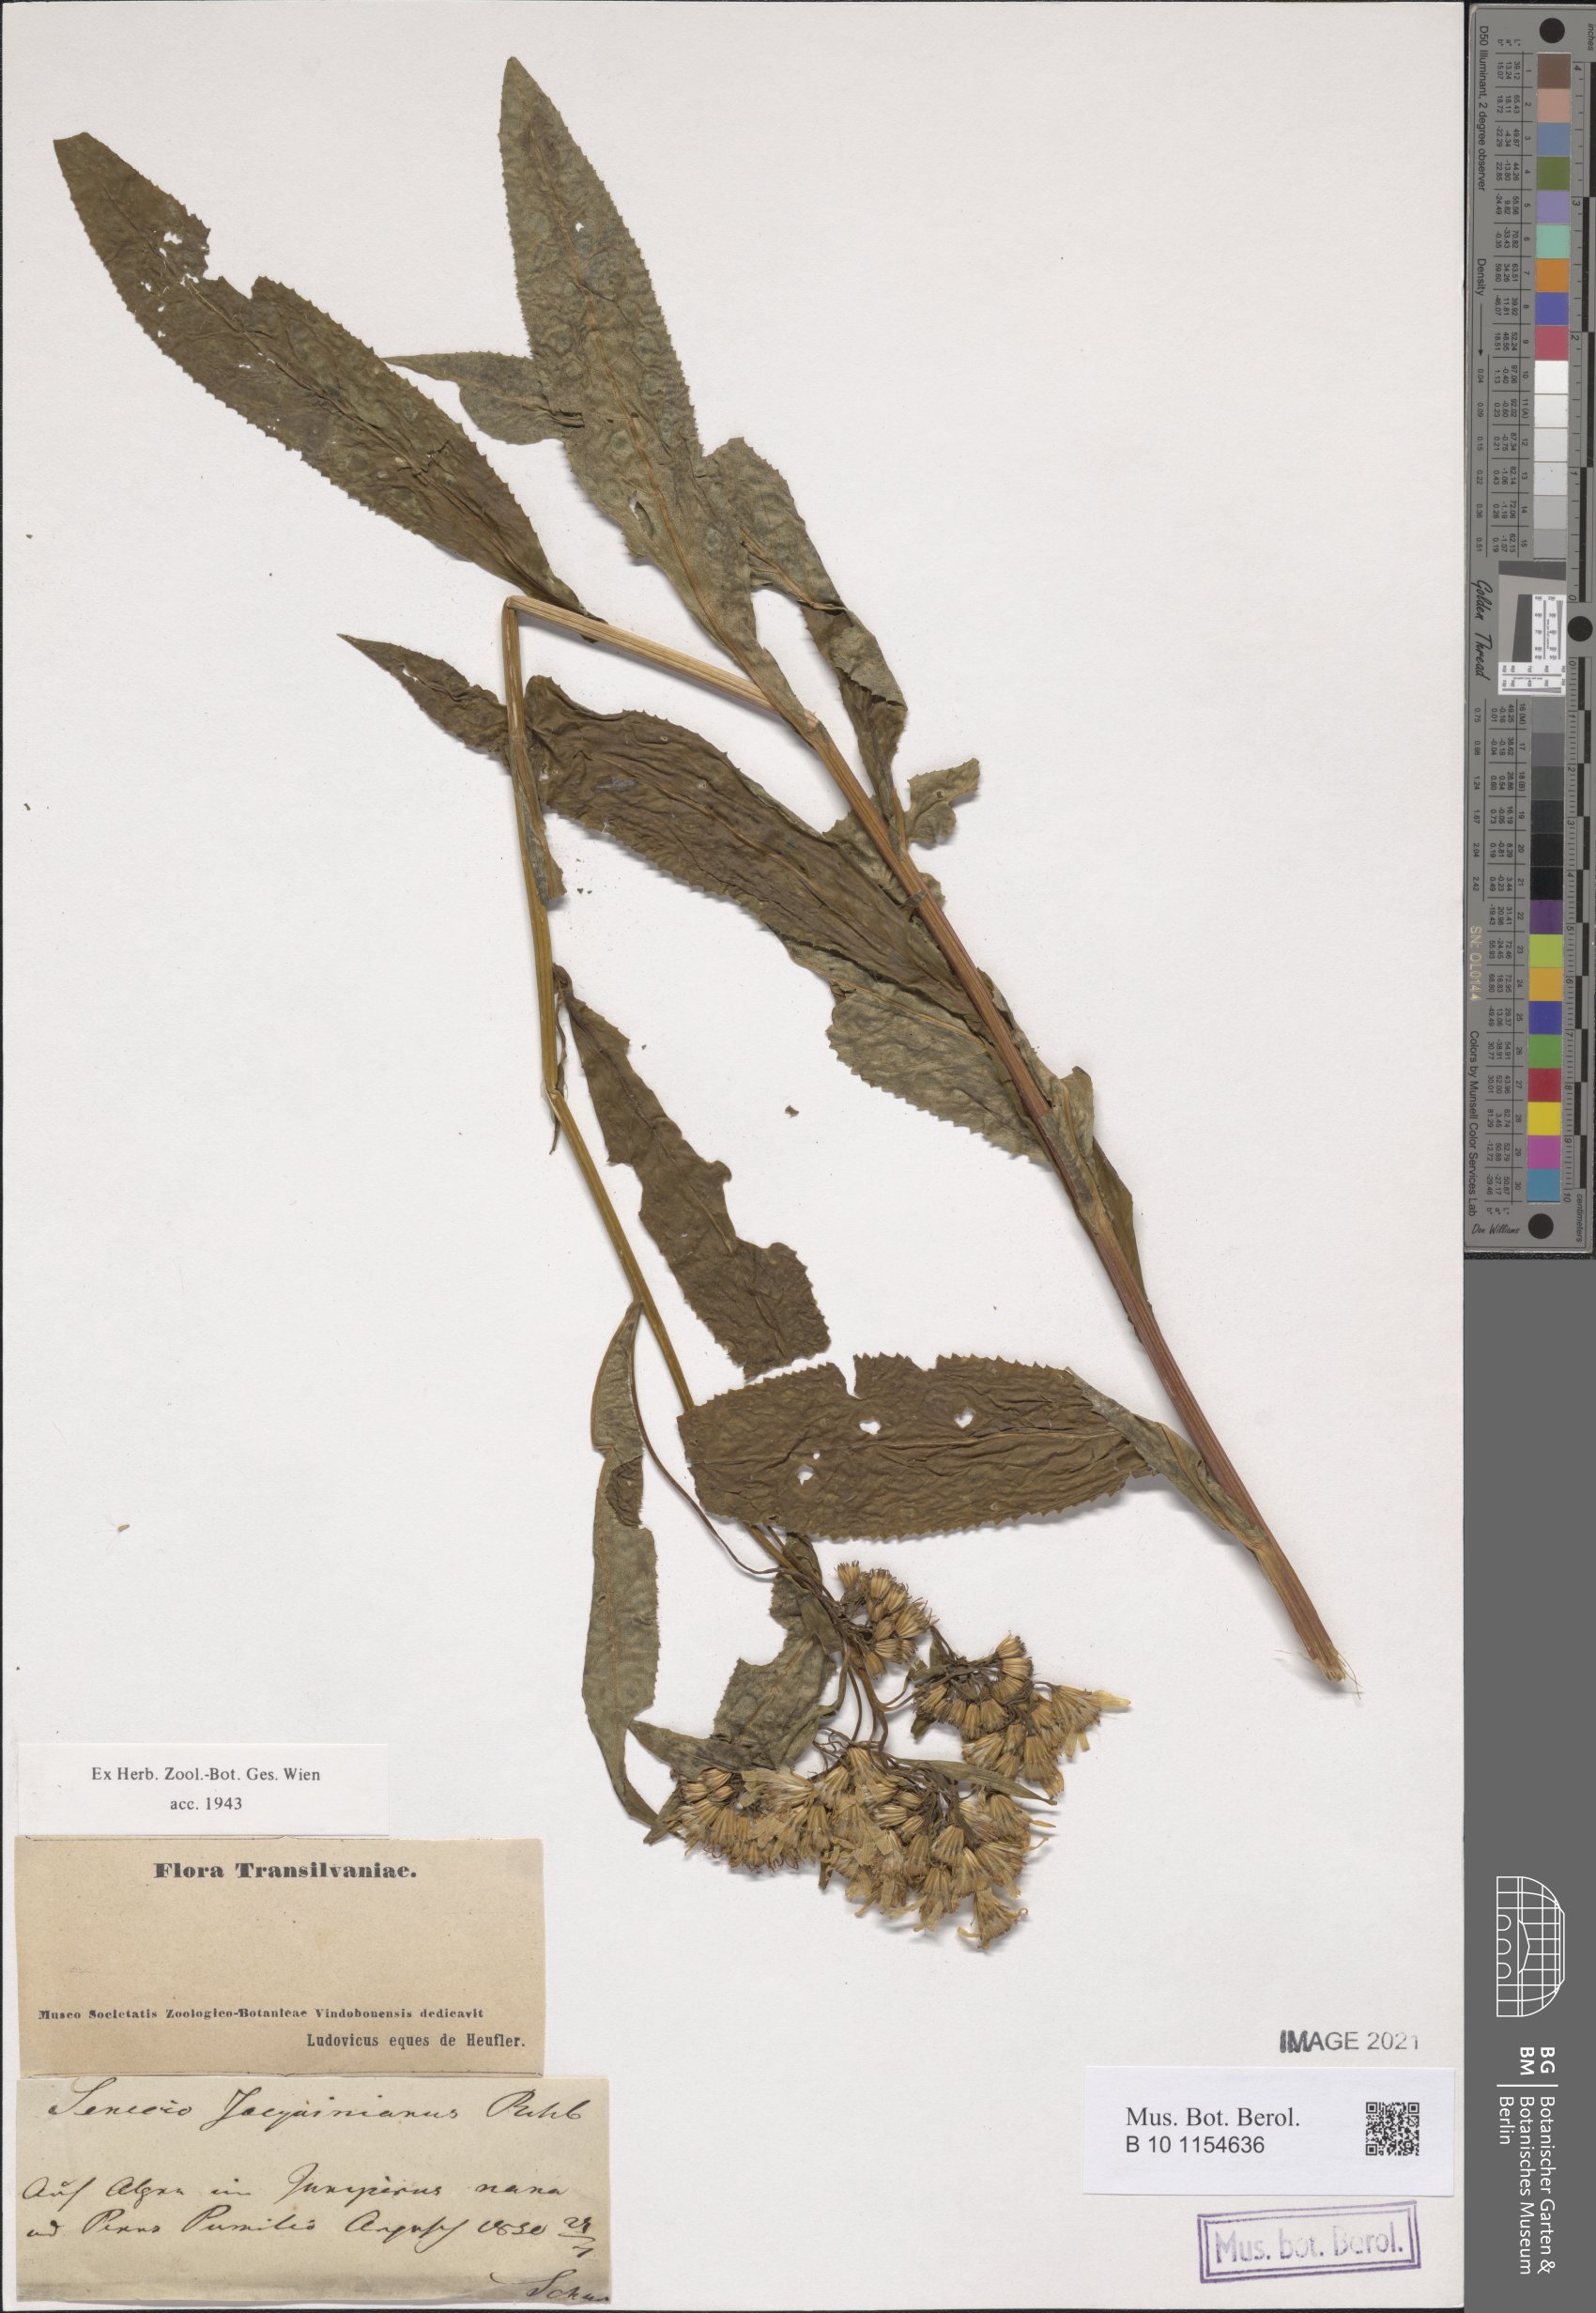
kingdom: Plantae
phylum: Tracheophyta
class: Magnoliopsida
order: Asterales
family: Asteraceae
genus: Senecio
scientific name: Senecio germanicus
